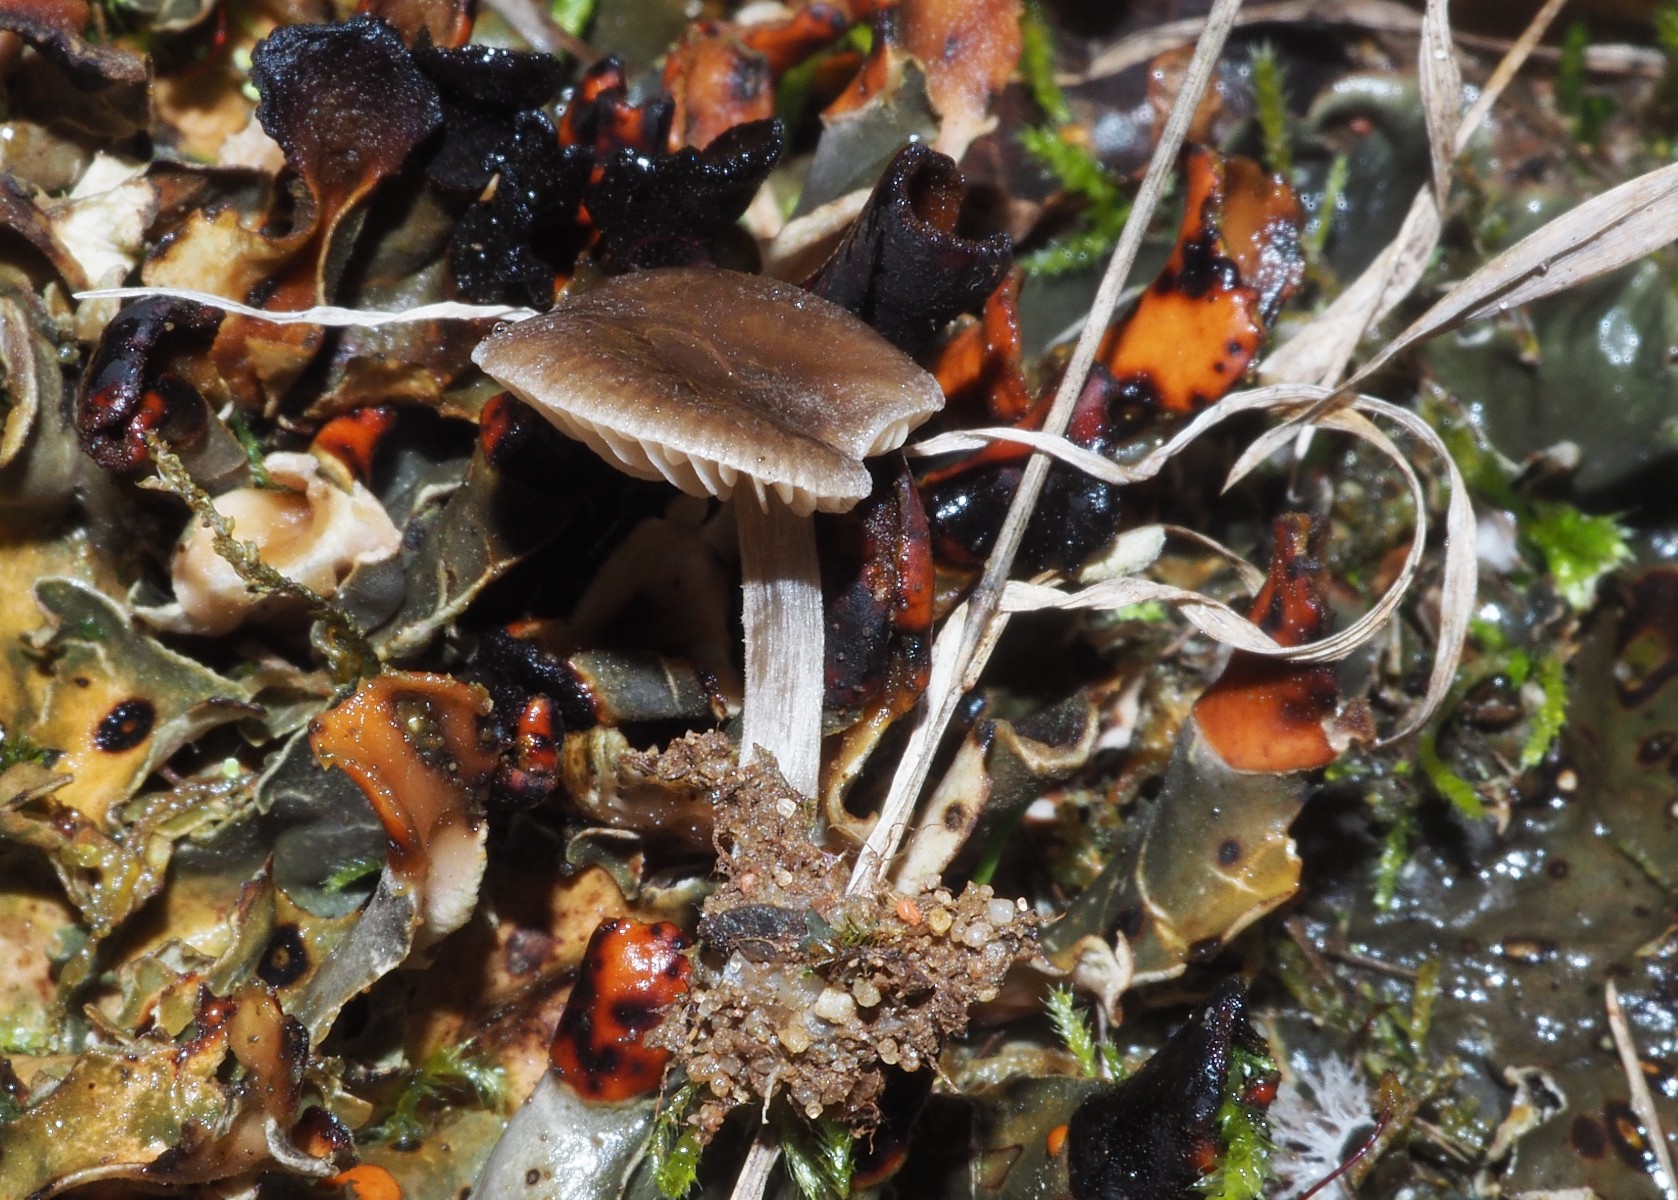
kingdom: Fungi
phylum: Basidiomycota
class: Agaricomycetes
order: Agaricales
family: Entolomataceae
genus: Entoloma
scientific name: Entoloma
